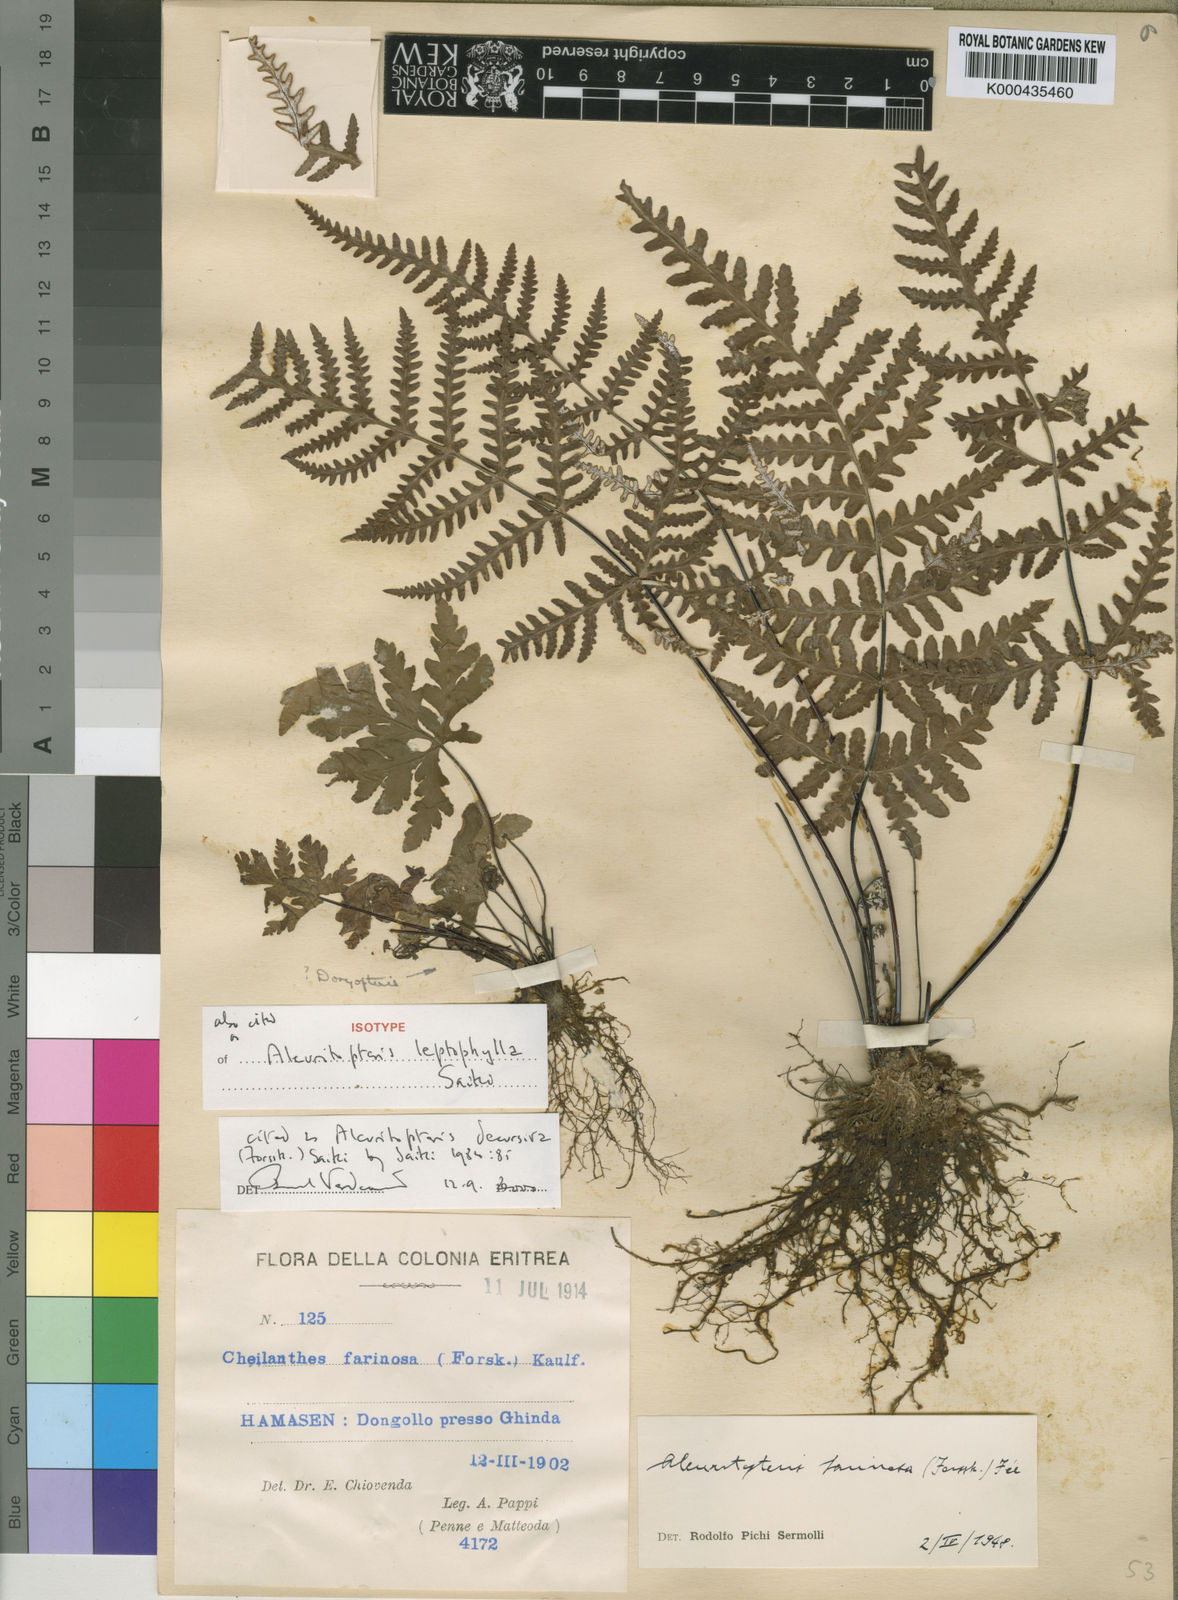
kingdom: Plantae
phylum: Tracheophyta
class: Polypodiopsida
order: Polypodiales
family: Pteridaceae
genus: Aleuritopteris
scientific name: Aleuritopteris farinosa
